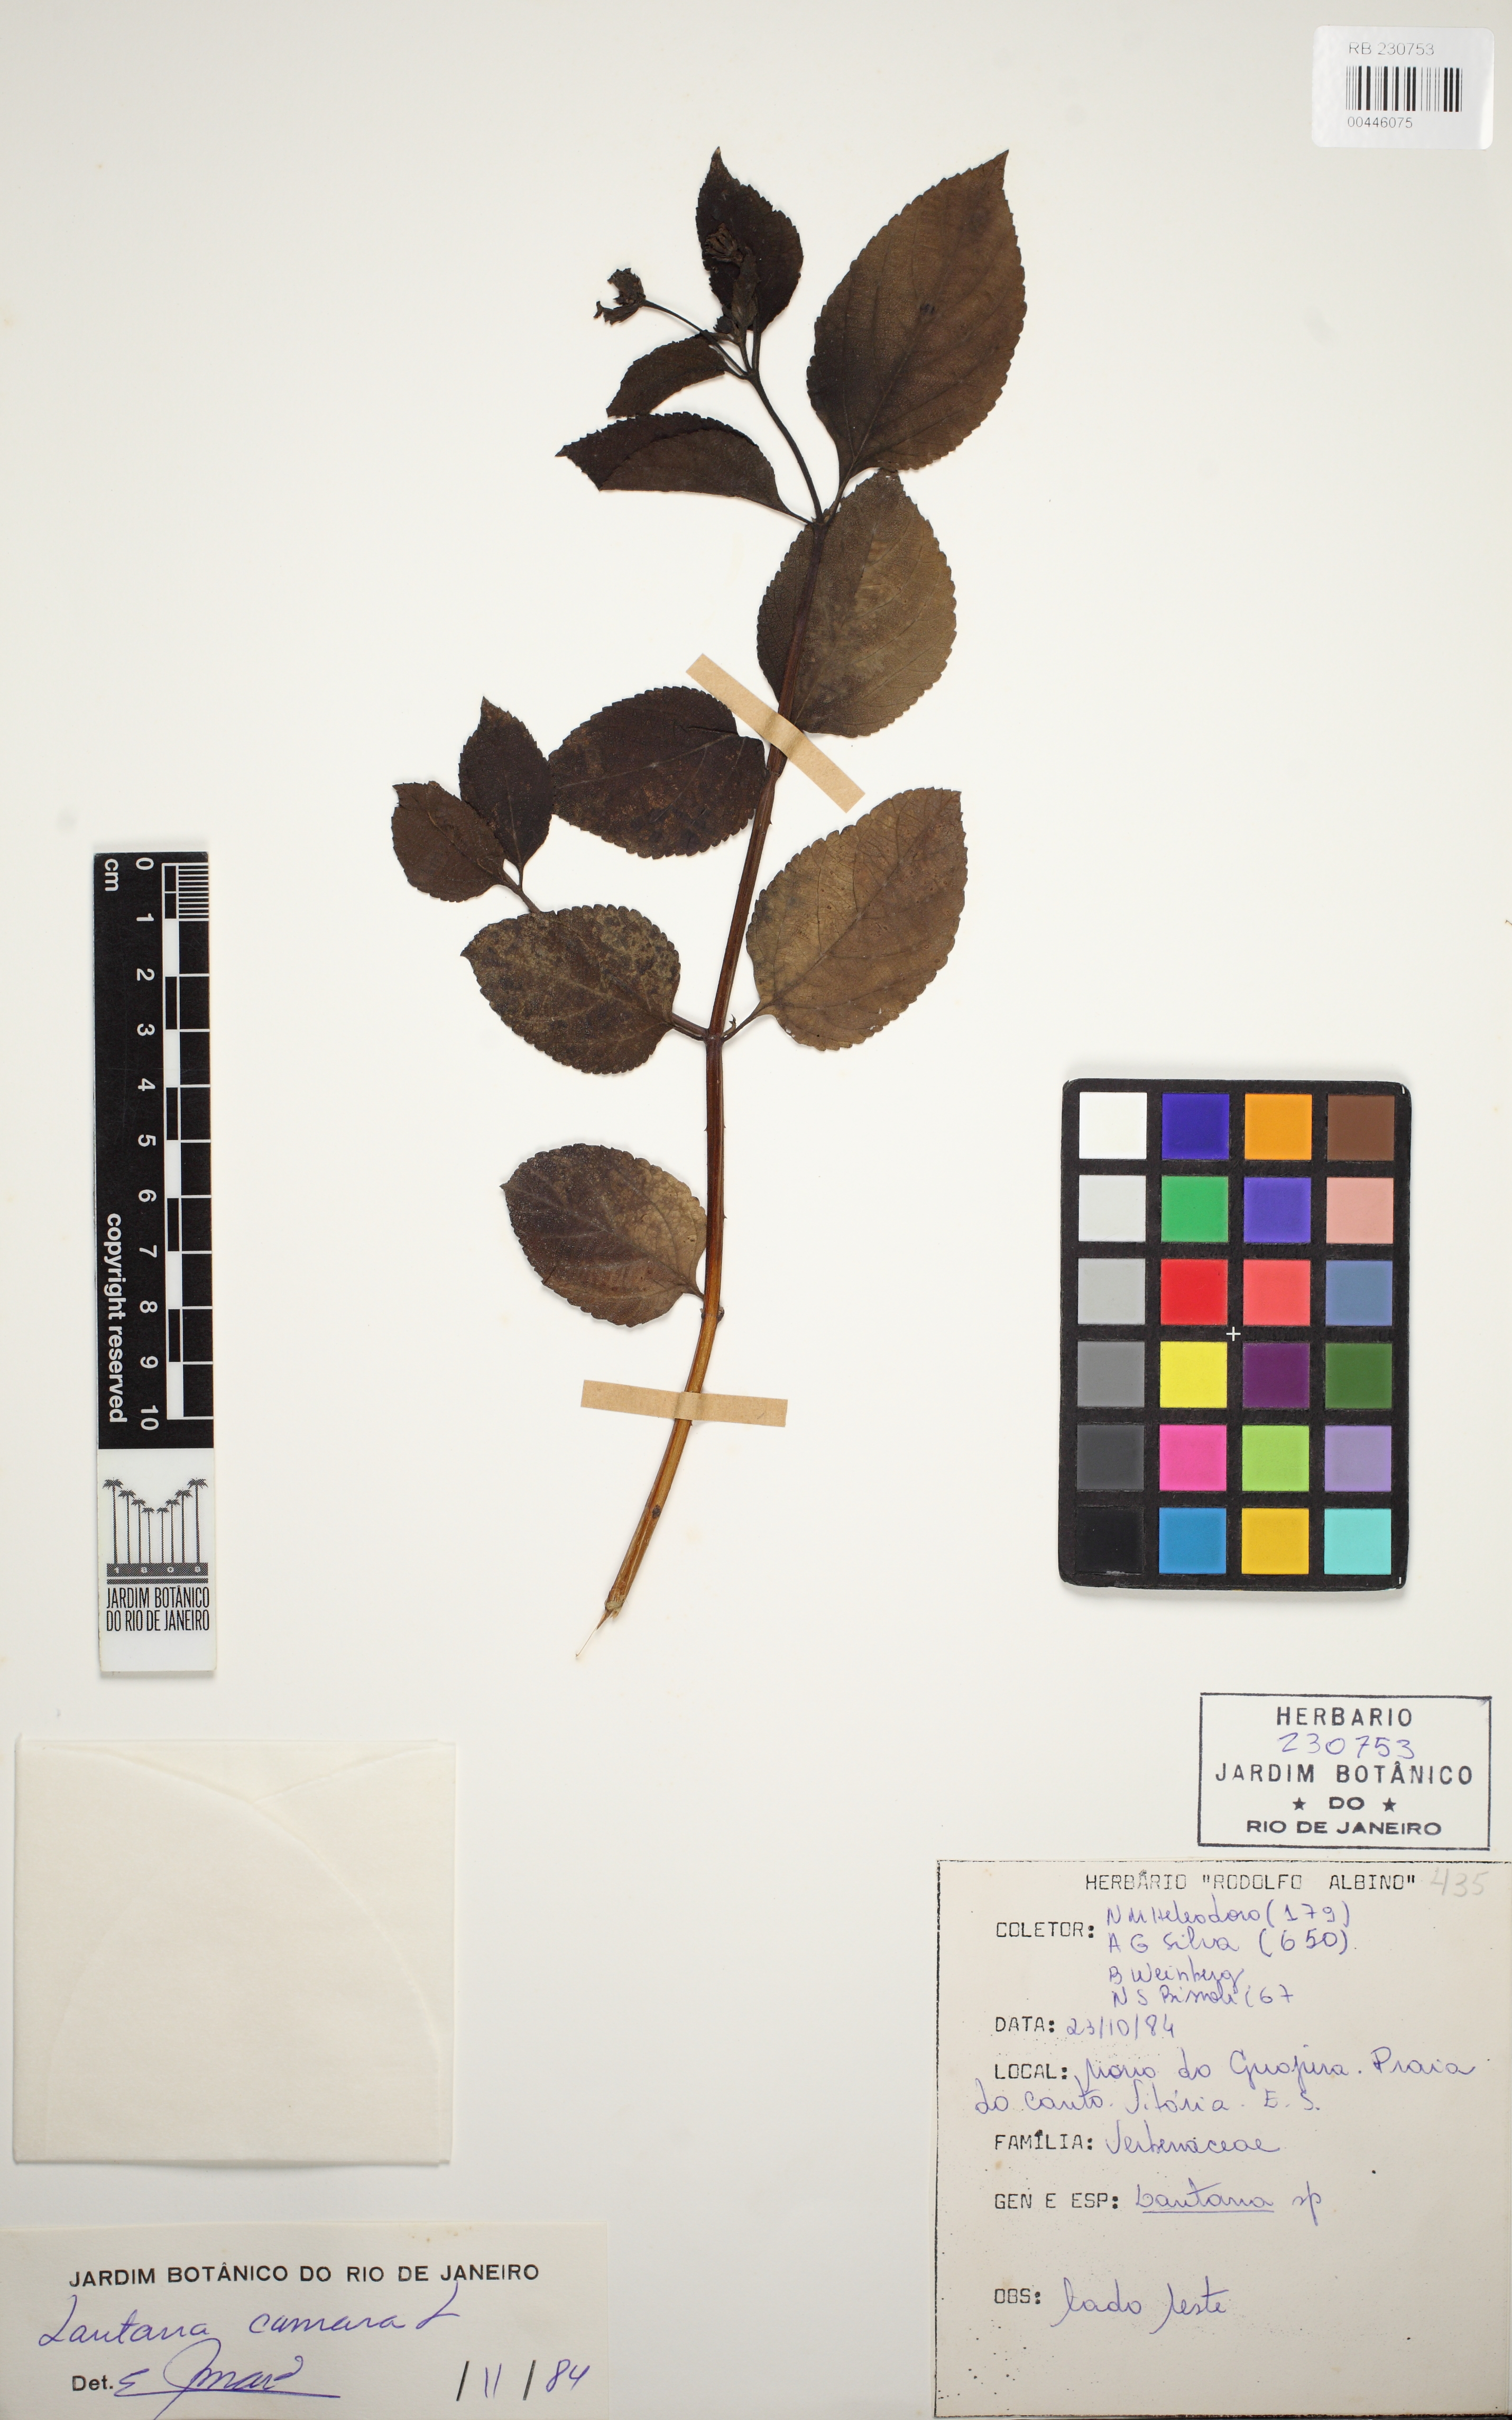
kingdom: Plantae
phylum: Tracheophyta
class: Magnoliopsida
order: Lamiales
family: Verbenaceae
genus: Lantana
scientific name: Lantana camara
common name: Lantana
